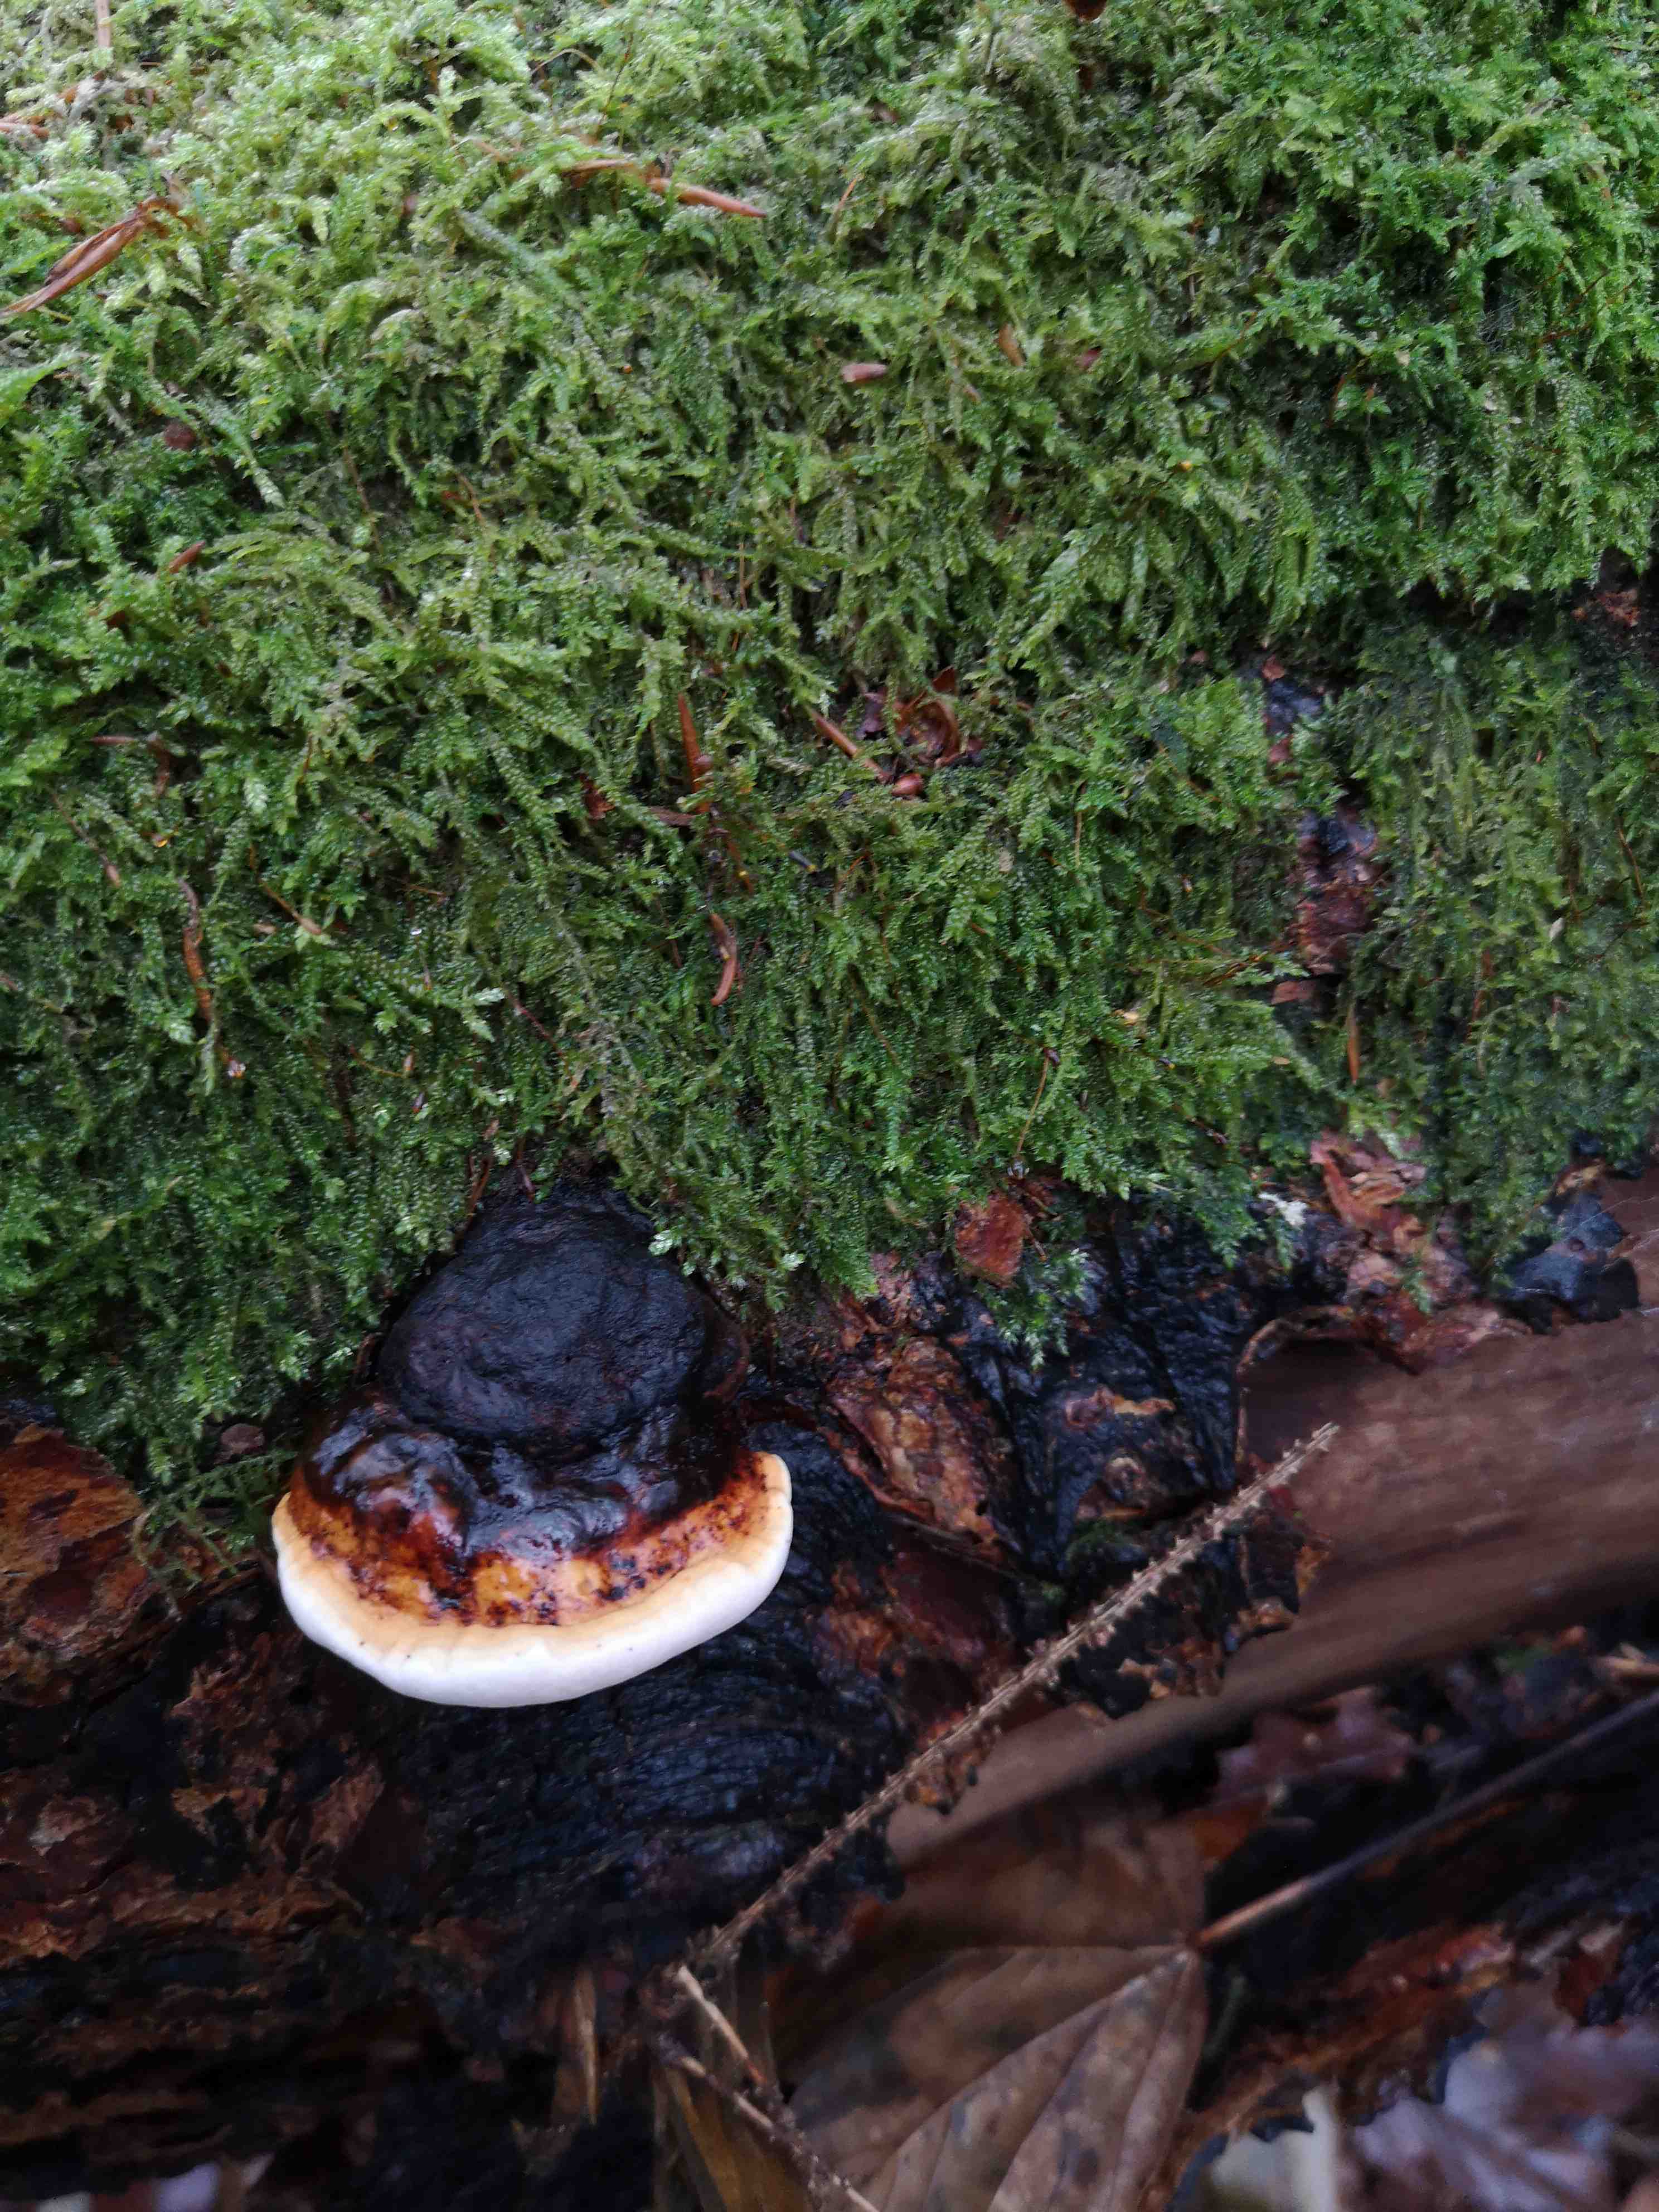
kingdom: Fungi
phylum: Basidiomycota
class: Agaricomycetes
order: Polyporales
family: Fomitopsidaceae
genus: Fomitopsis
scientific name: Fomitopsis pinicola
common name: randbæltet hovporesvamp
